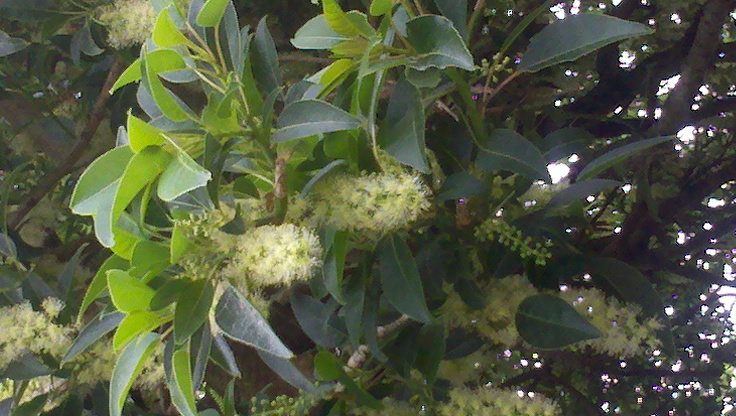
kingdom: Plantae
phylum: Tracheophyta
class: Magnoliopsida
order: Caryophyllales
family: Phytolaccaceae
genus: Phytolacca
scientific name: Phytolacca dioica
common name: Pokeweed
